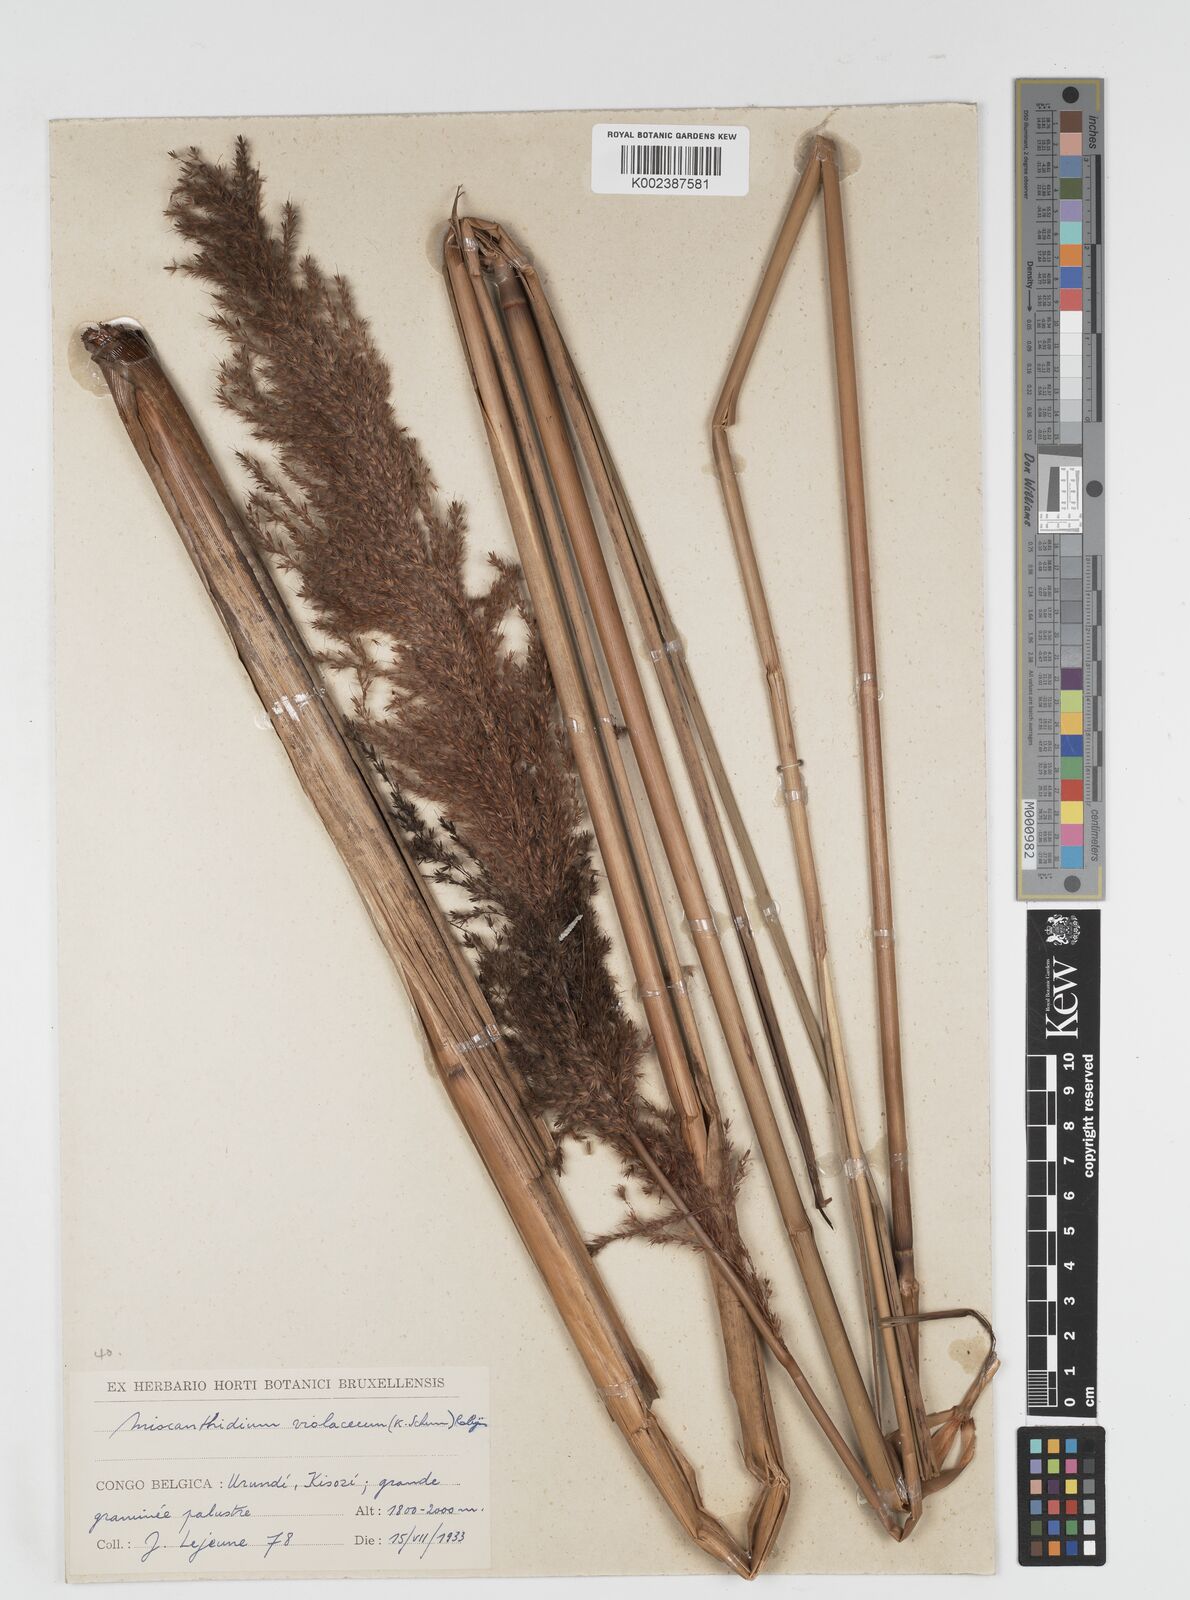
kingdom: Plantae
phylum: Tracheophyta
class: Liliopsida
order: Poales
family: Poaceae
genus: Miscanthidium
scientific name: Miscanthidium violaceum
